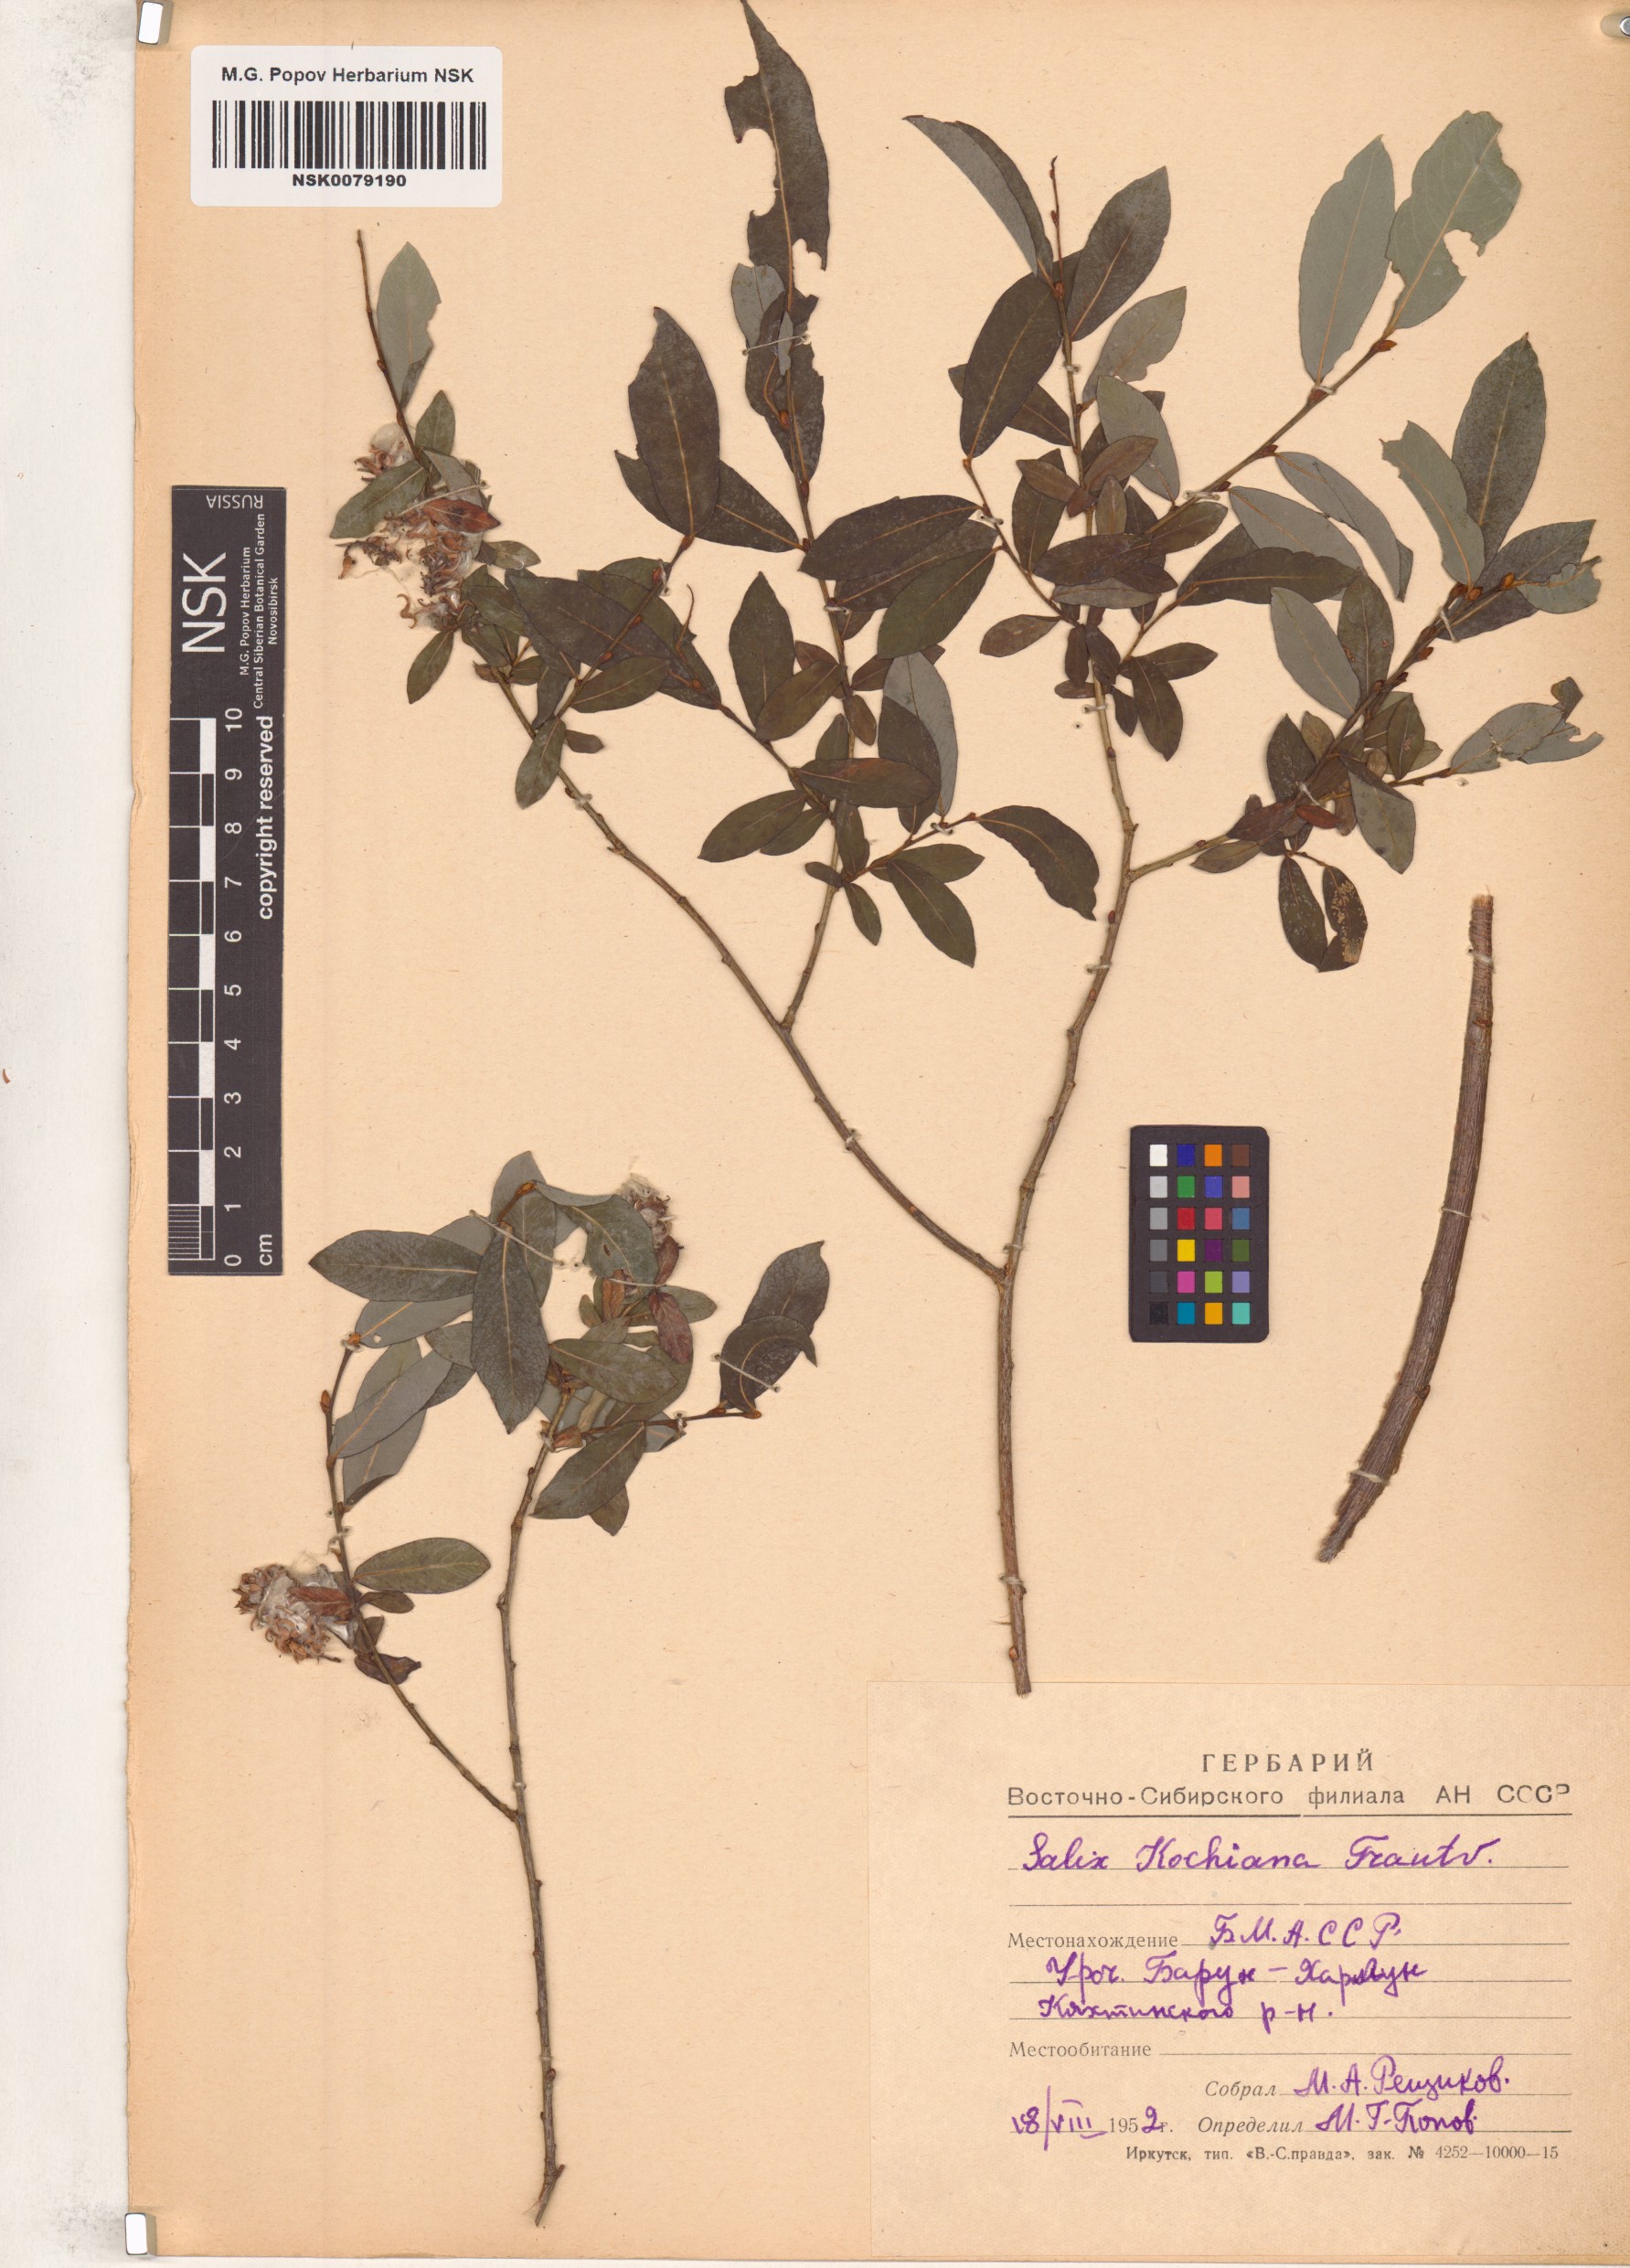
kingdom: Plantae
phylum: Tracheophyta
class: Magnoliopsida
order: Malpighiales
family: Salicaceae
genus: Salix
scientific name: Salix kochiana
